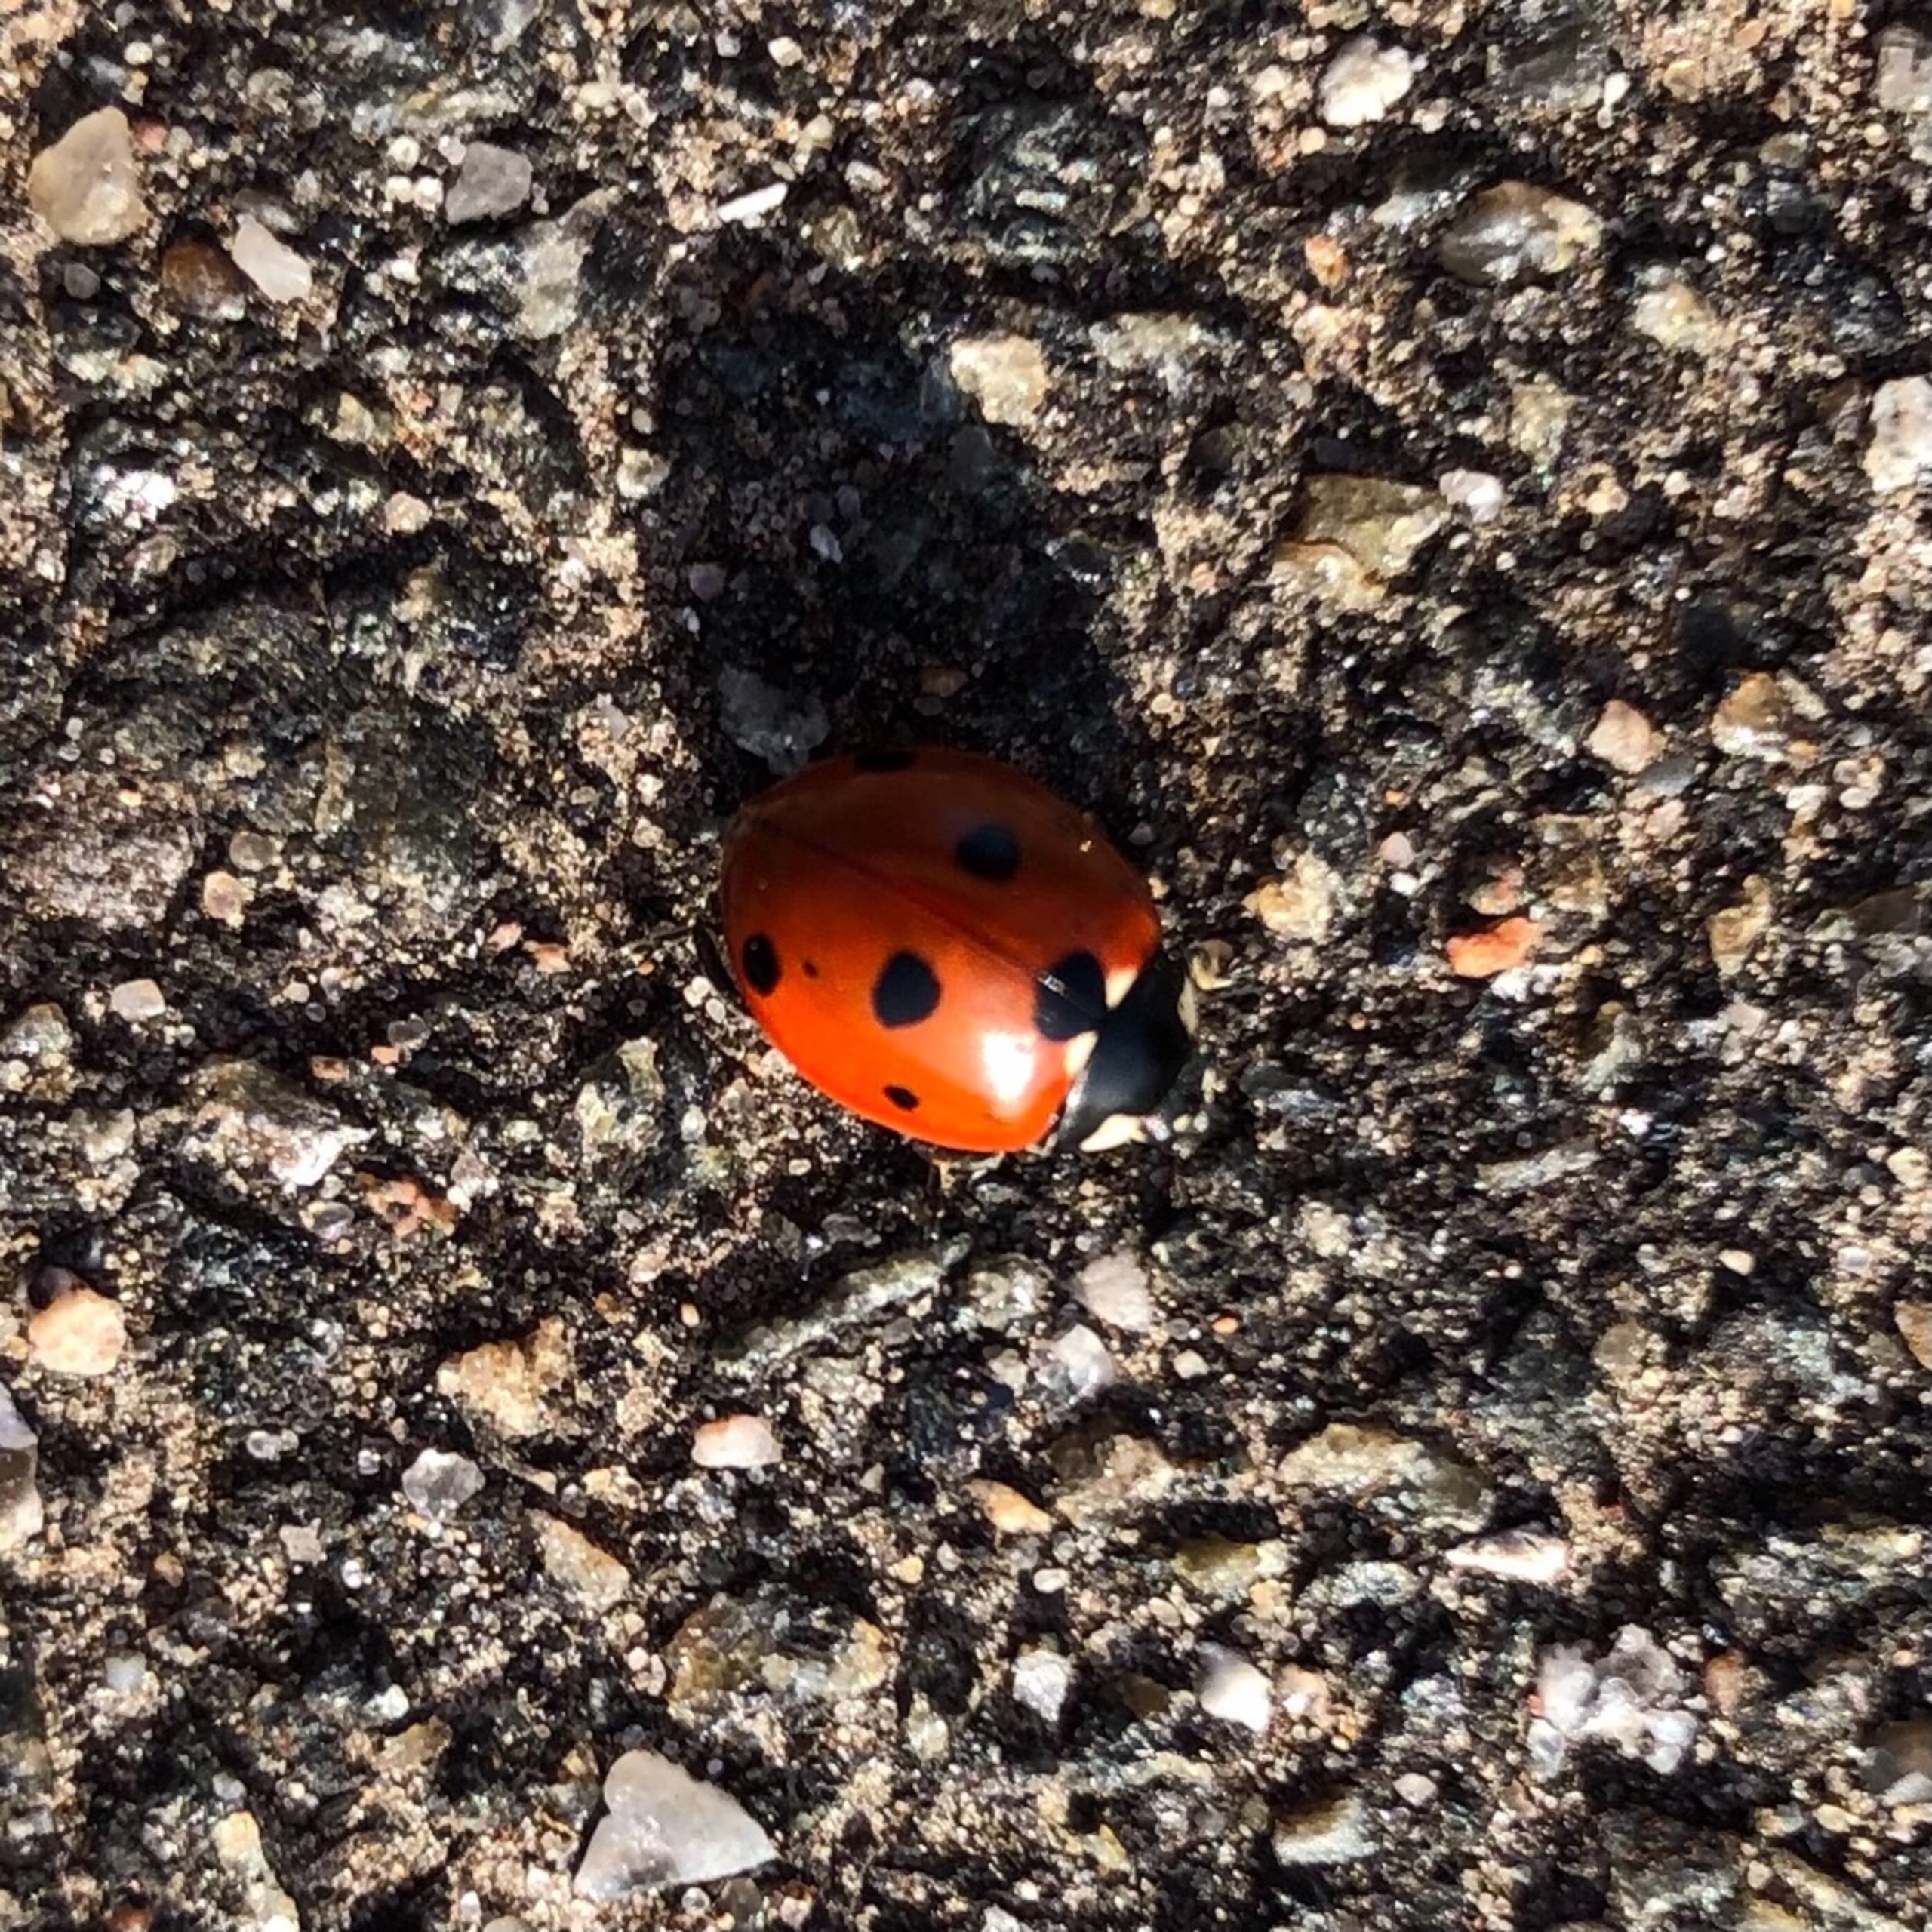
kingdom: Animalia
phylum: Arthropoda
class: Insecta
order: Coleoptera
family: Coccinellidae
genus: Coccinella
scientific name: Coccinella septempunctata
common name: Syvplettet mariehøne
